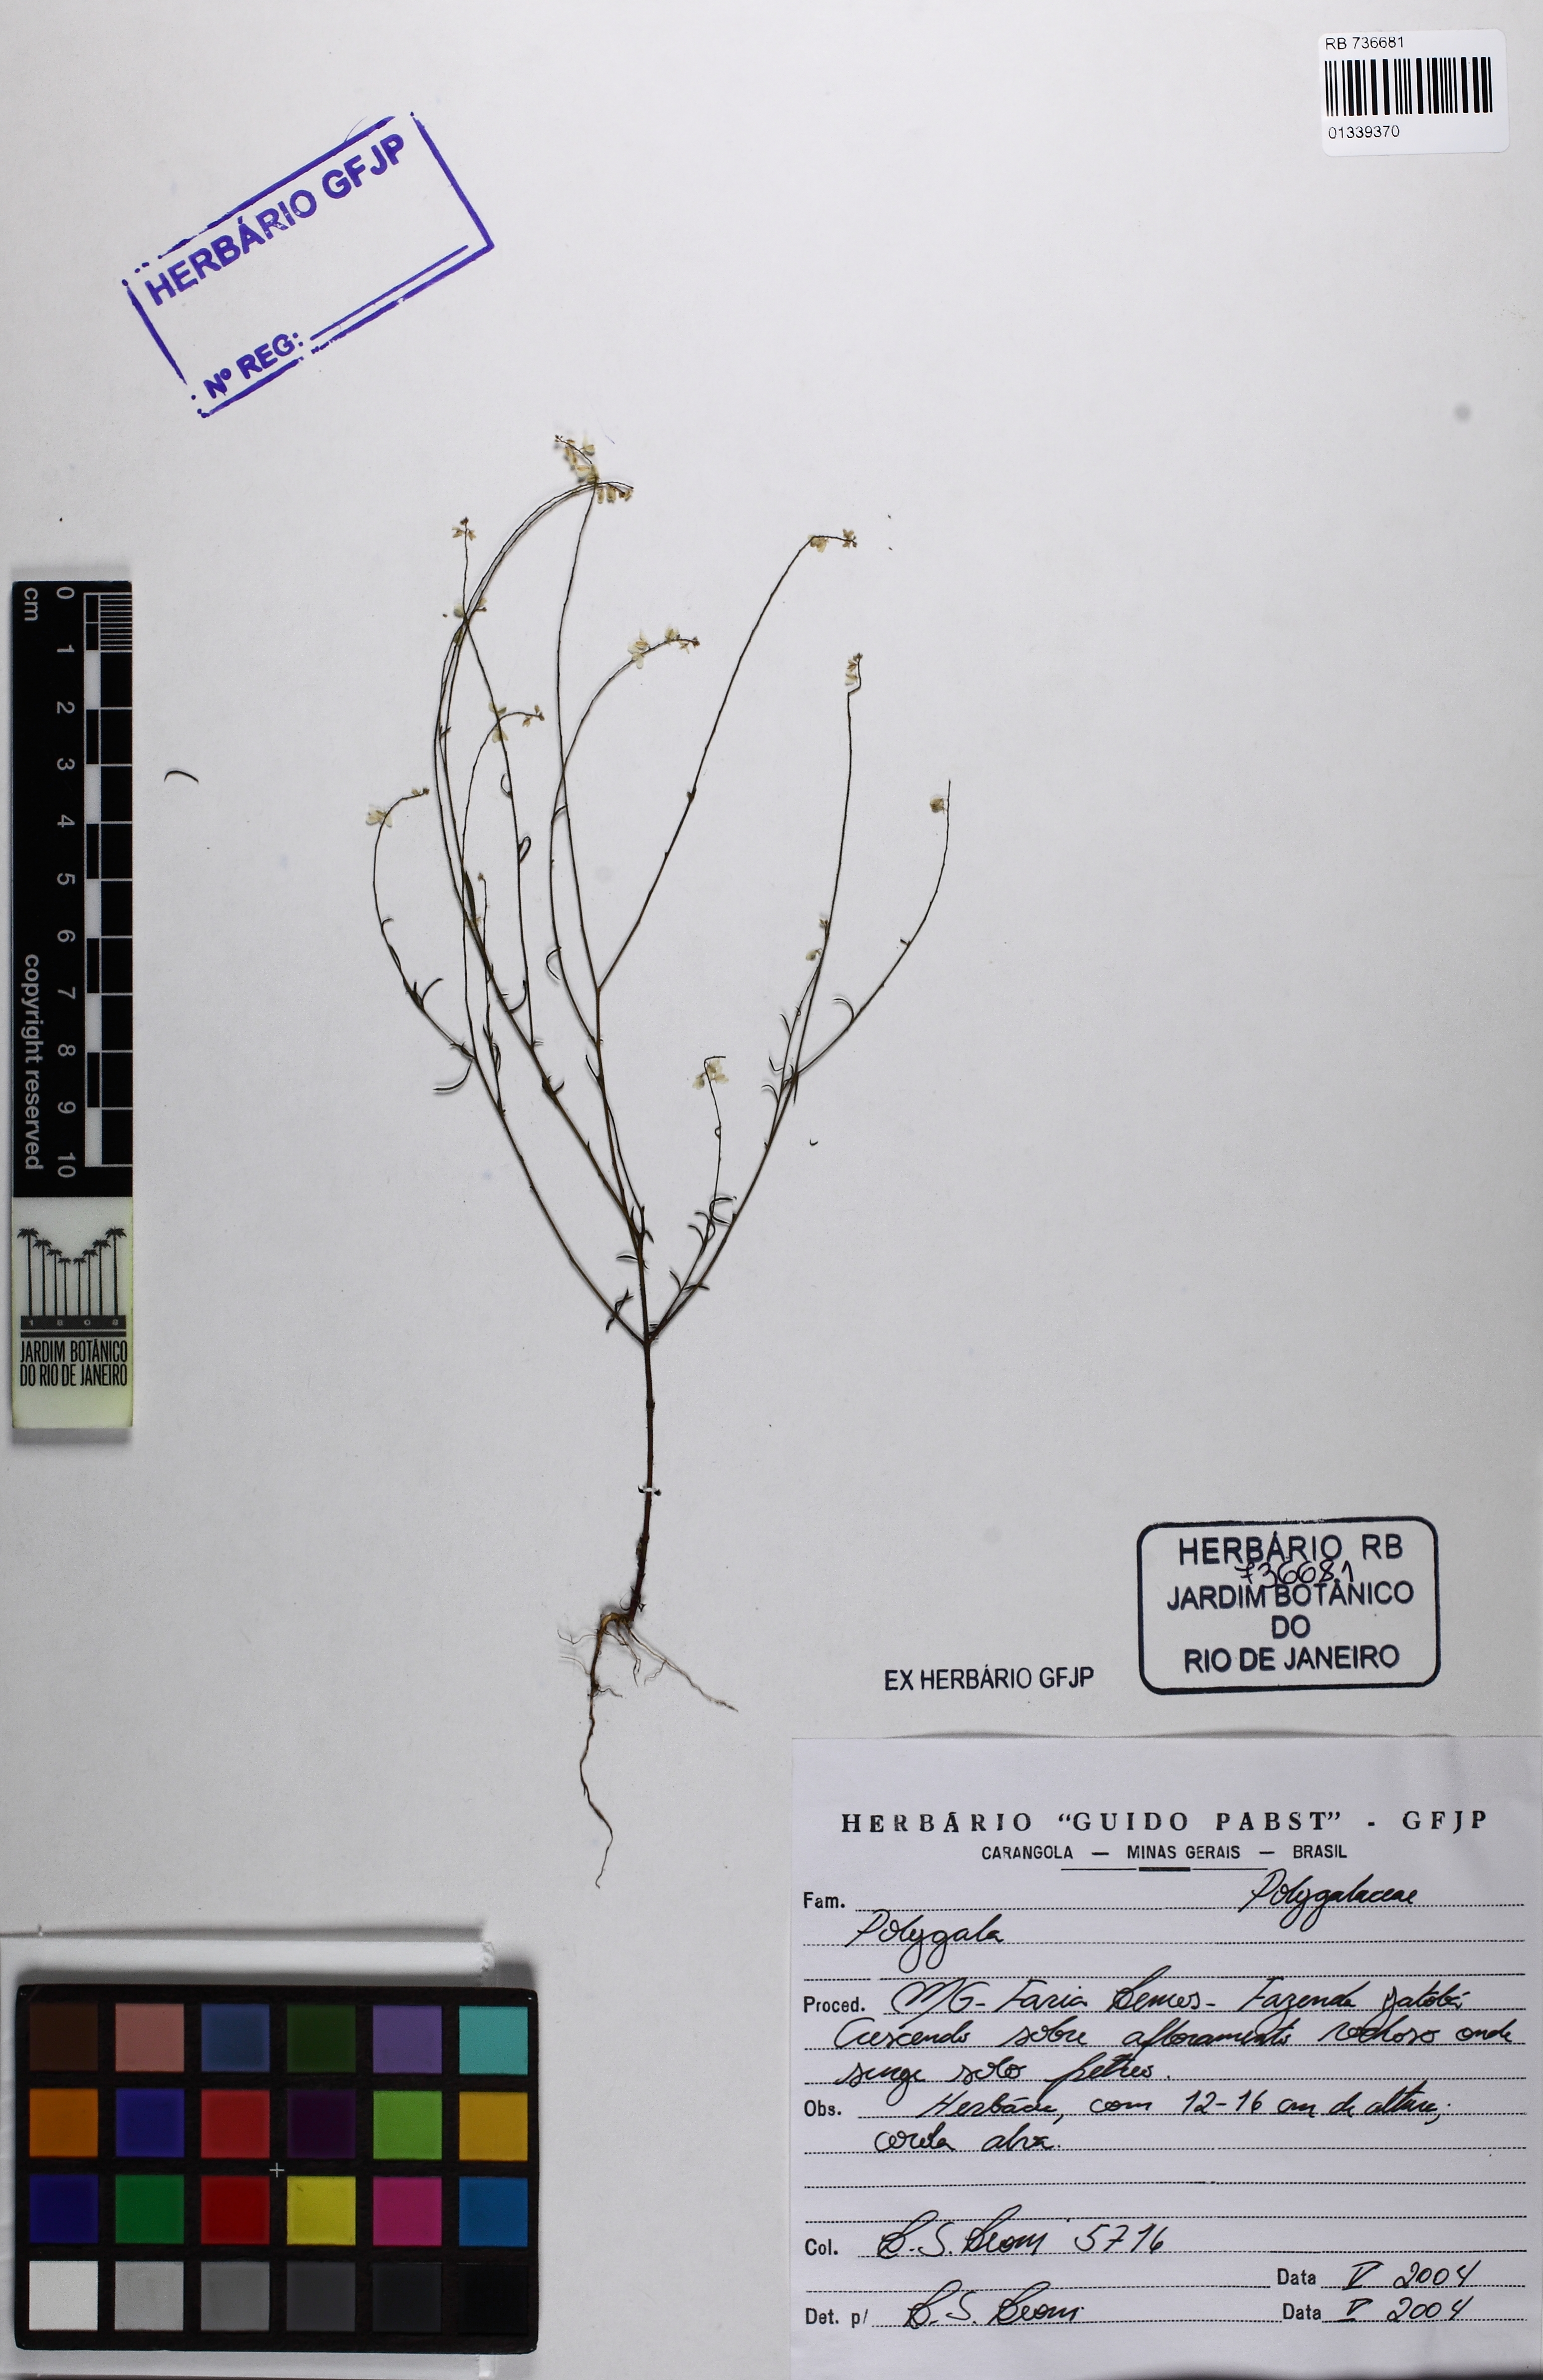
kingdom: Plantae
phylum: Tracheophyta
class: Magnoliopsida
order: Fabales
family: Polygalaceae
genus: Polygala
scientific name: Polygala glochidiata
